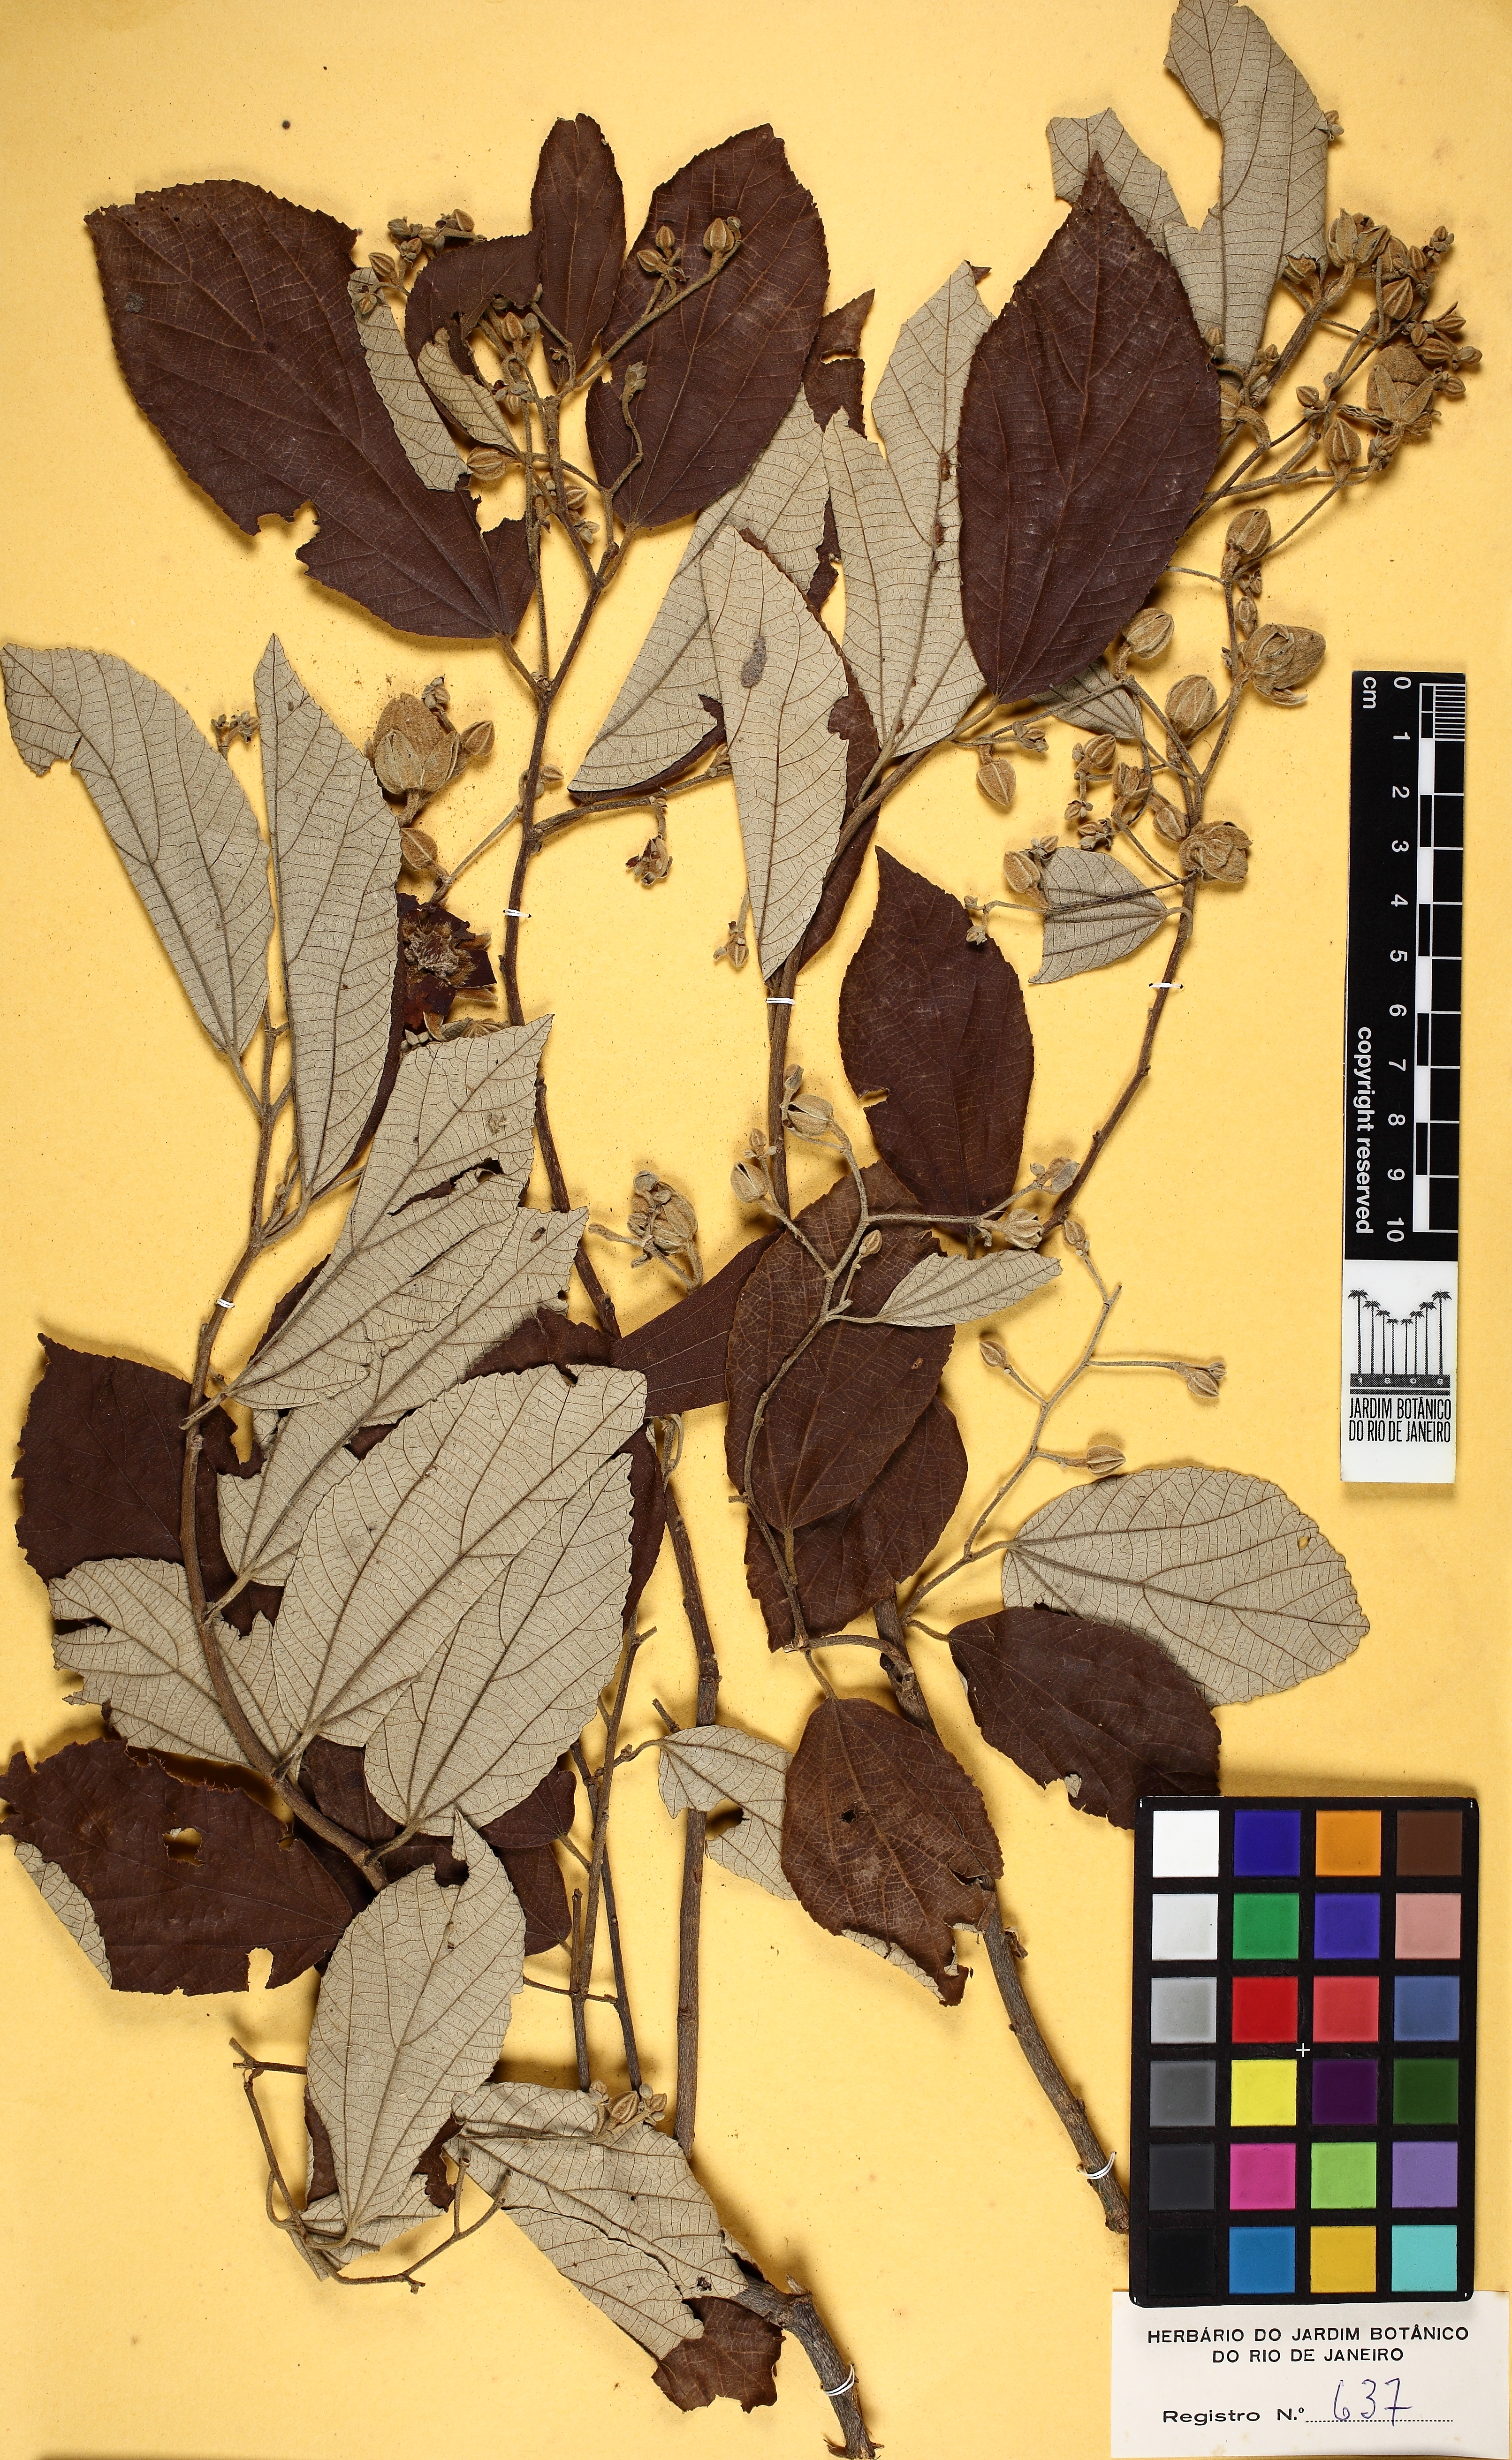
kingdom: Plantae
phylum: Tracheophyta
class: Magnoliopsida
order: Malvales
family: Malvaceae
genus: Luehea
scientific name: Luehea
